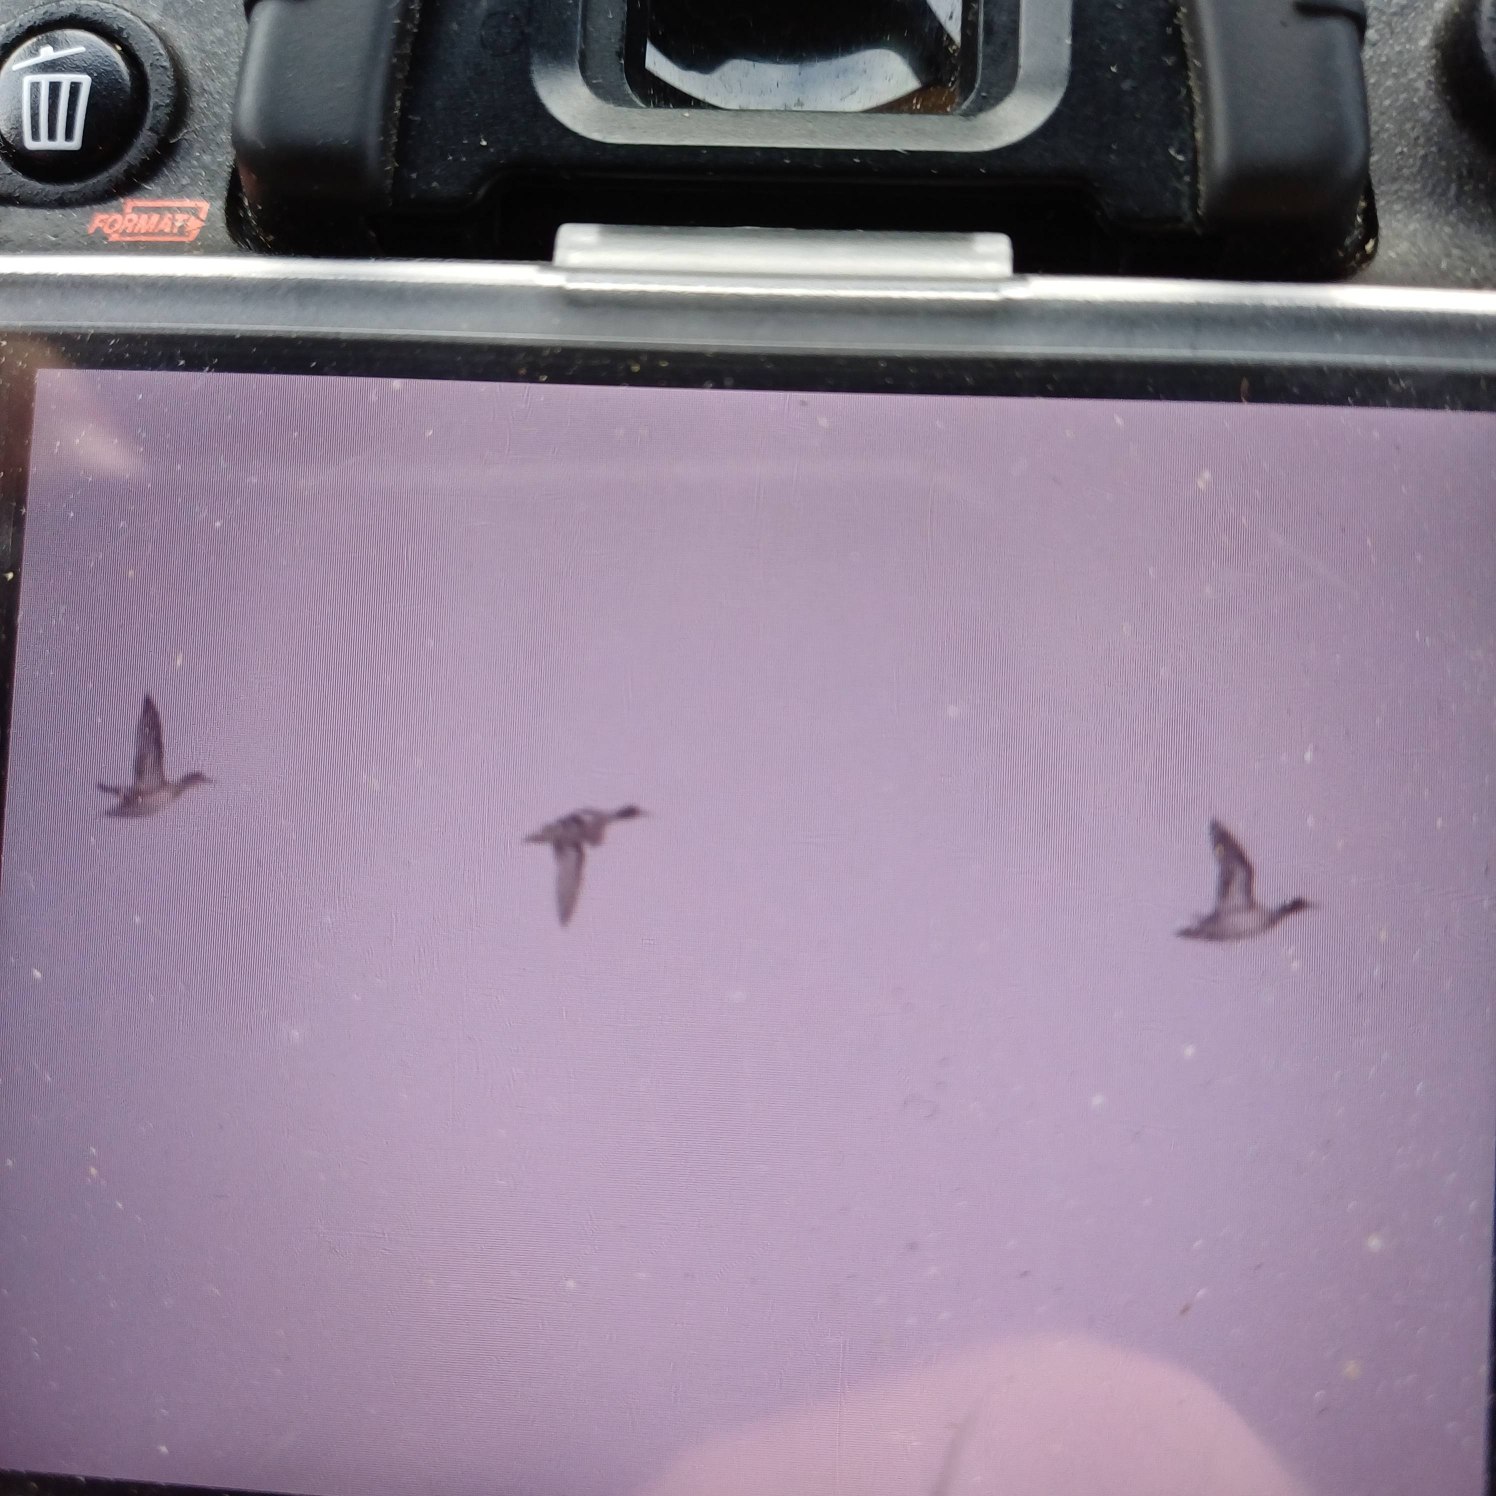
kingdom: Animalia
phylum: Chordata
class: Aves
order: Anseriformes
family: Anatidae
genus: Anas
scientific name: Anas crecca
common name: Krikand
